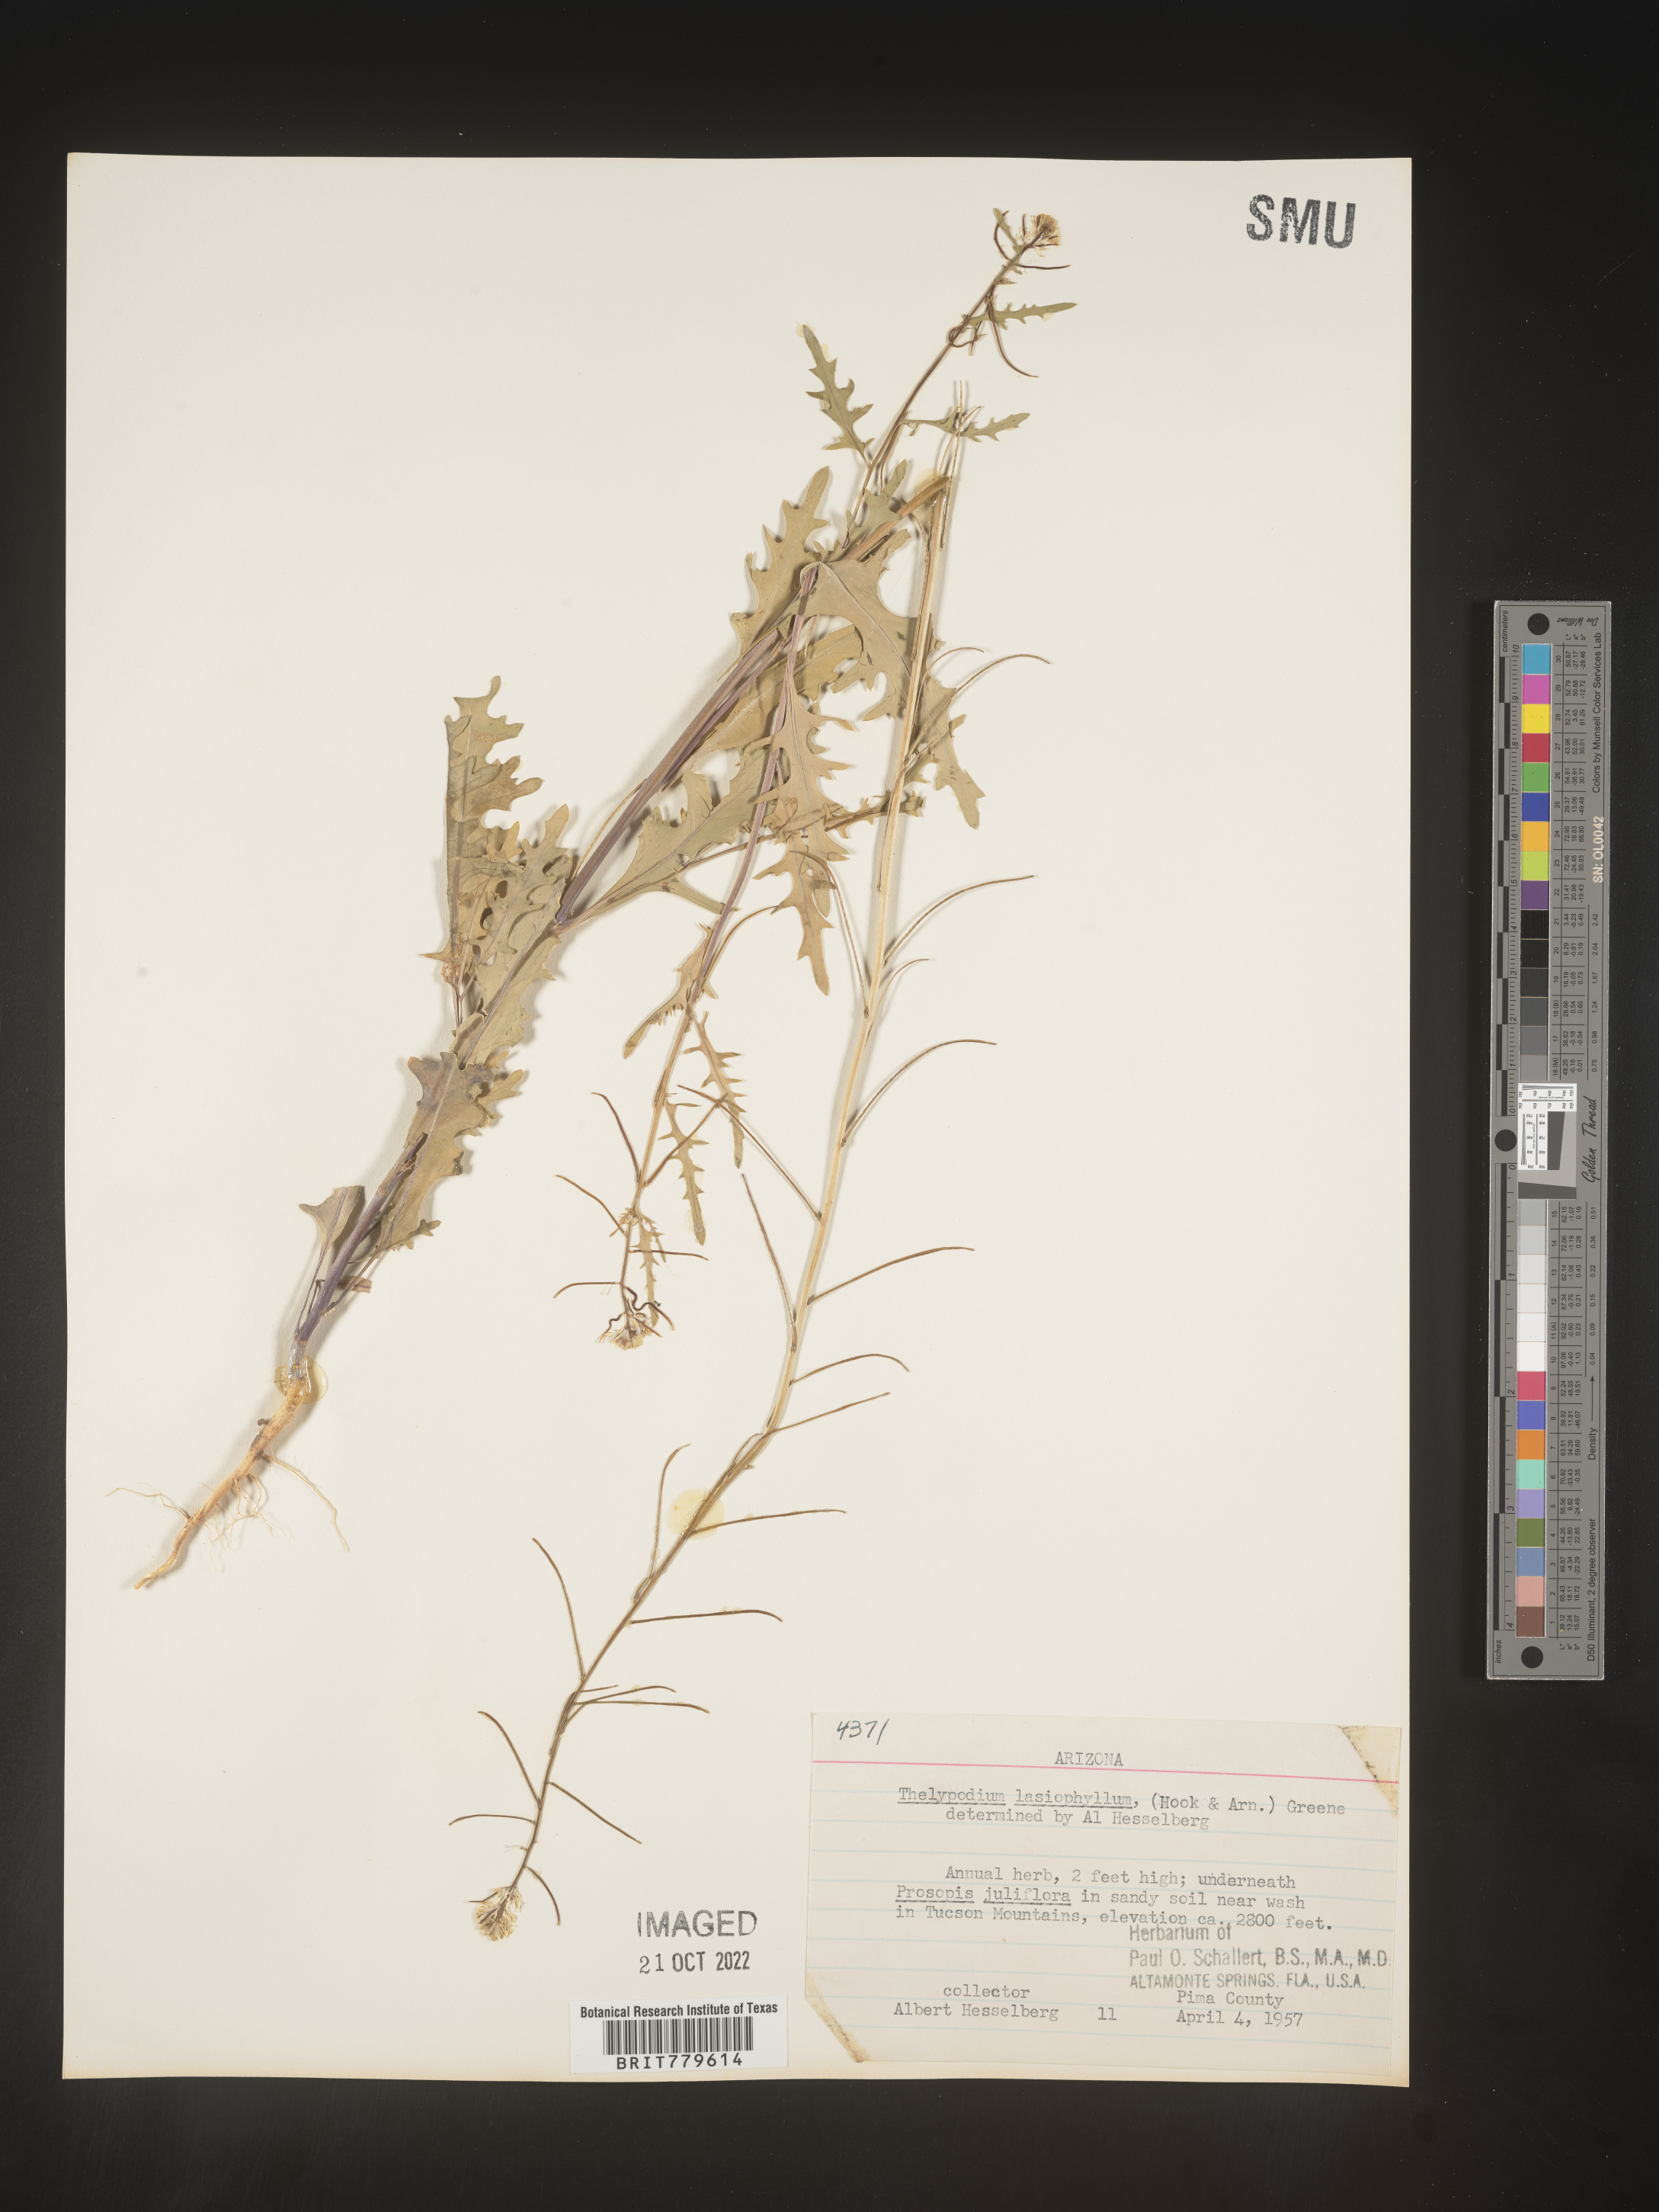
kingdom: Plantae
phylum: Tracheophyta
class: Magnoliopsida
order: Brassicales
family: Brassicaceae
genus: Thelypodium
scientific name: Thelypodium
